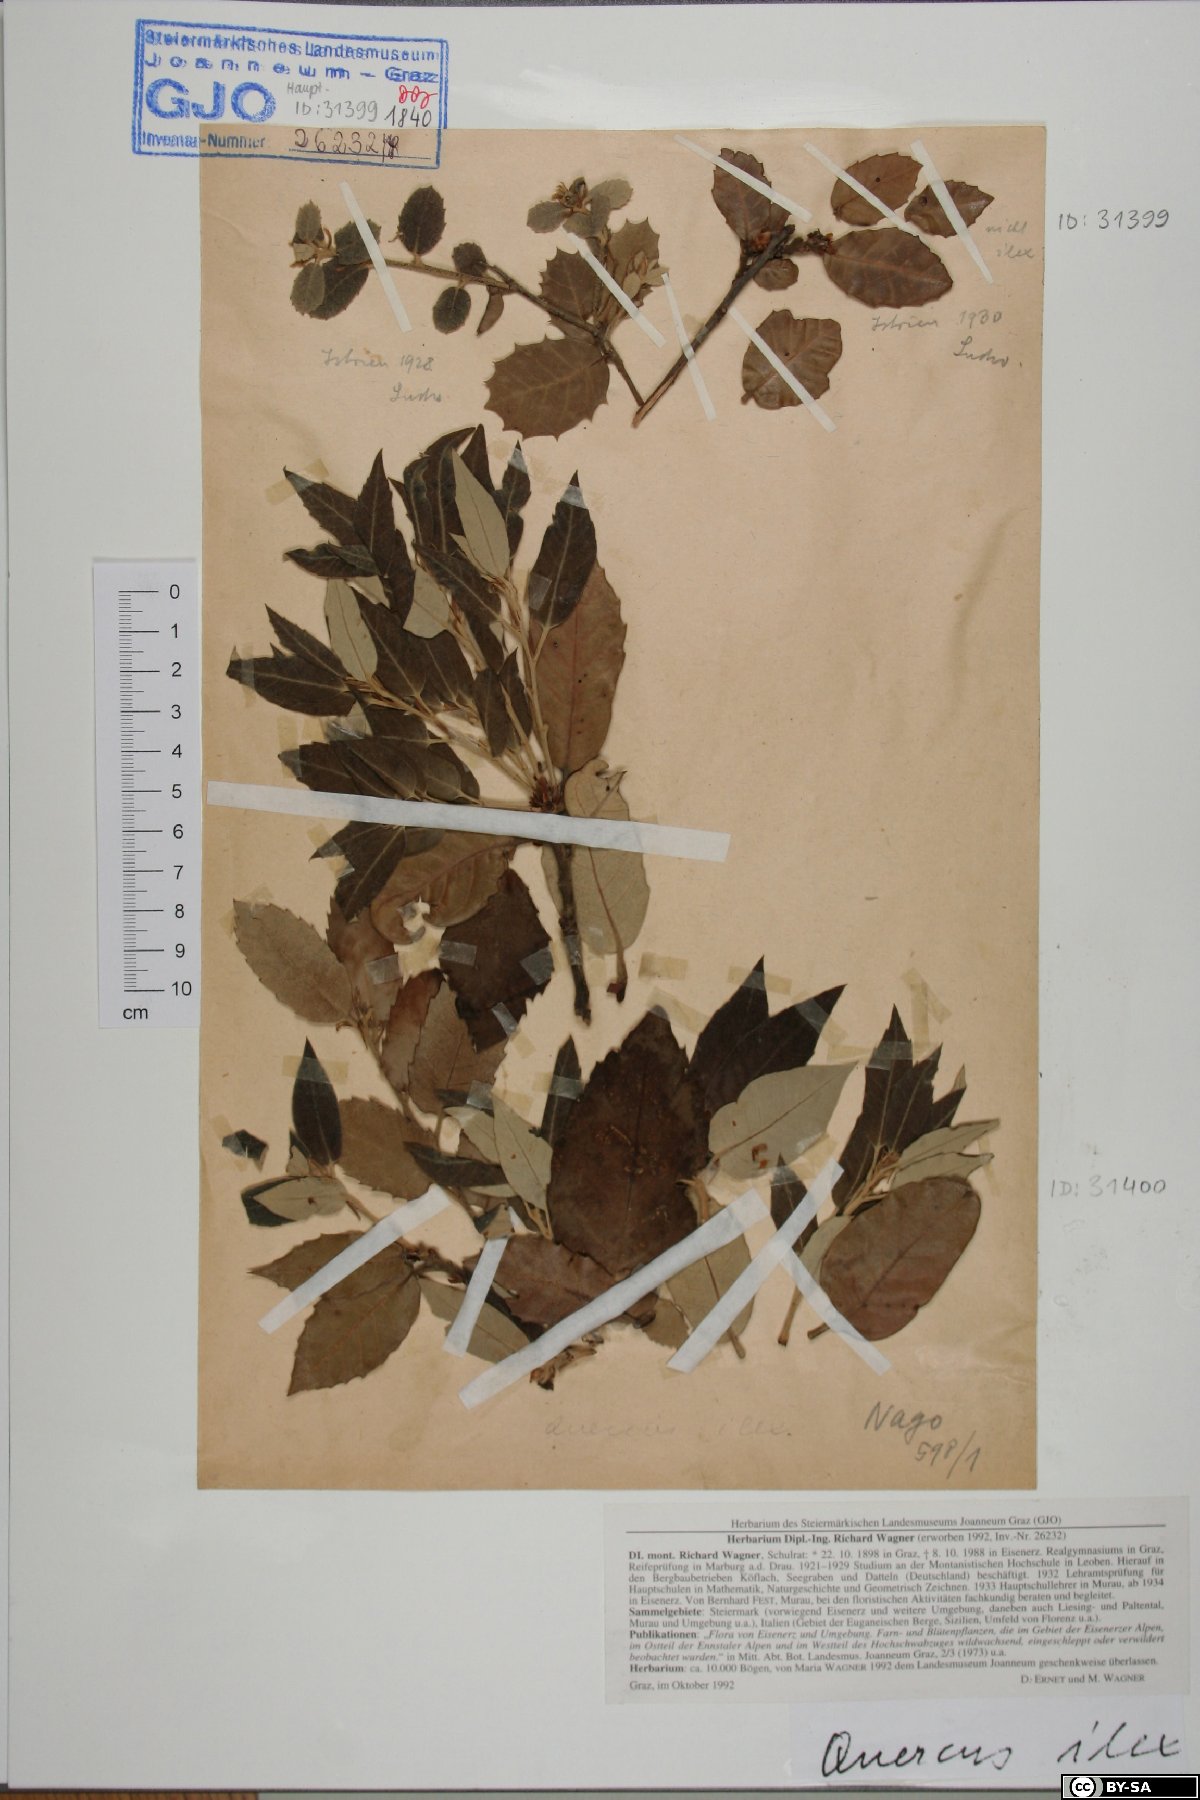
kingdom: Plantae
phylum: Tracheophyta
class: Magnoliopsida
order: Fagales
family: Fagaceae
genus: Quercus
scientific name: Quercus ilex
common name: Evergreen oak
